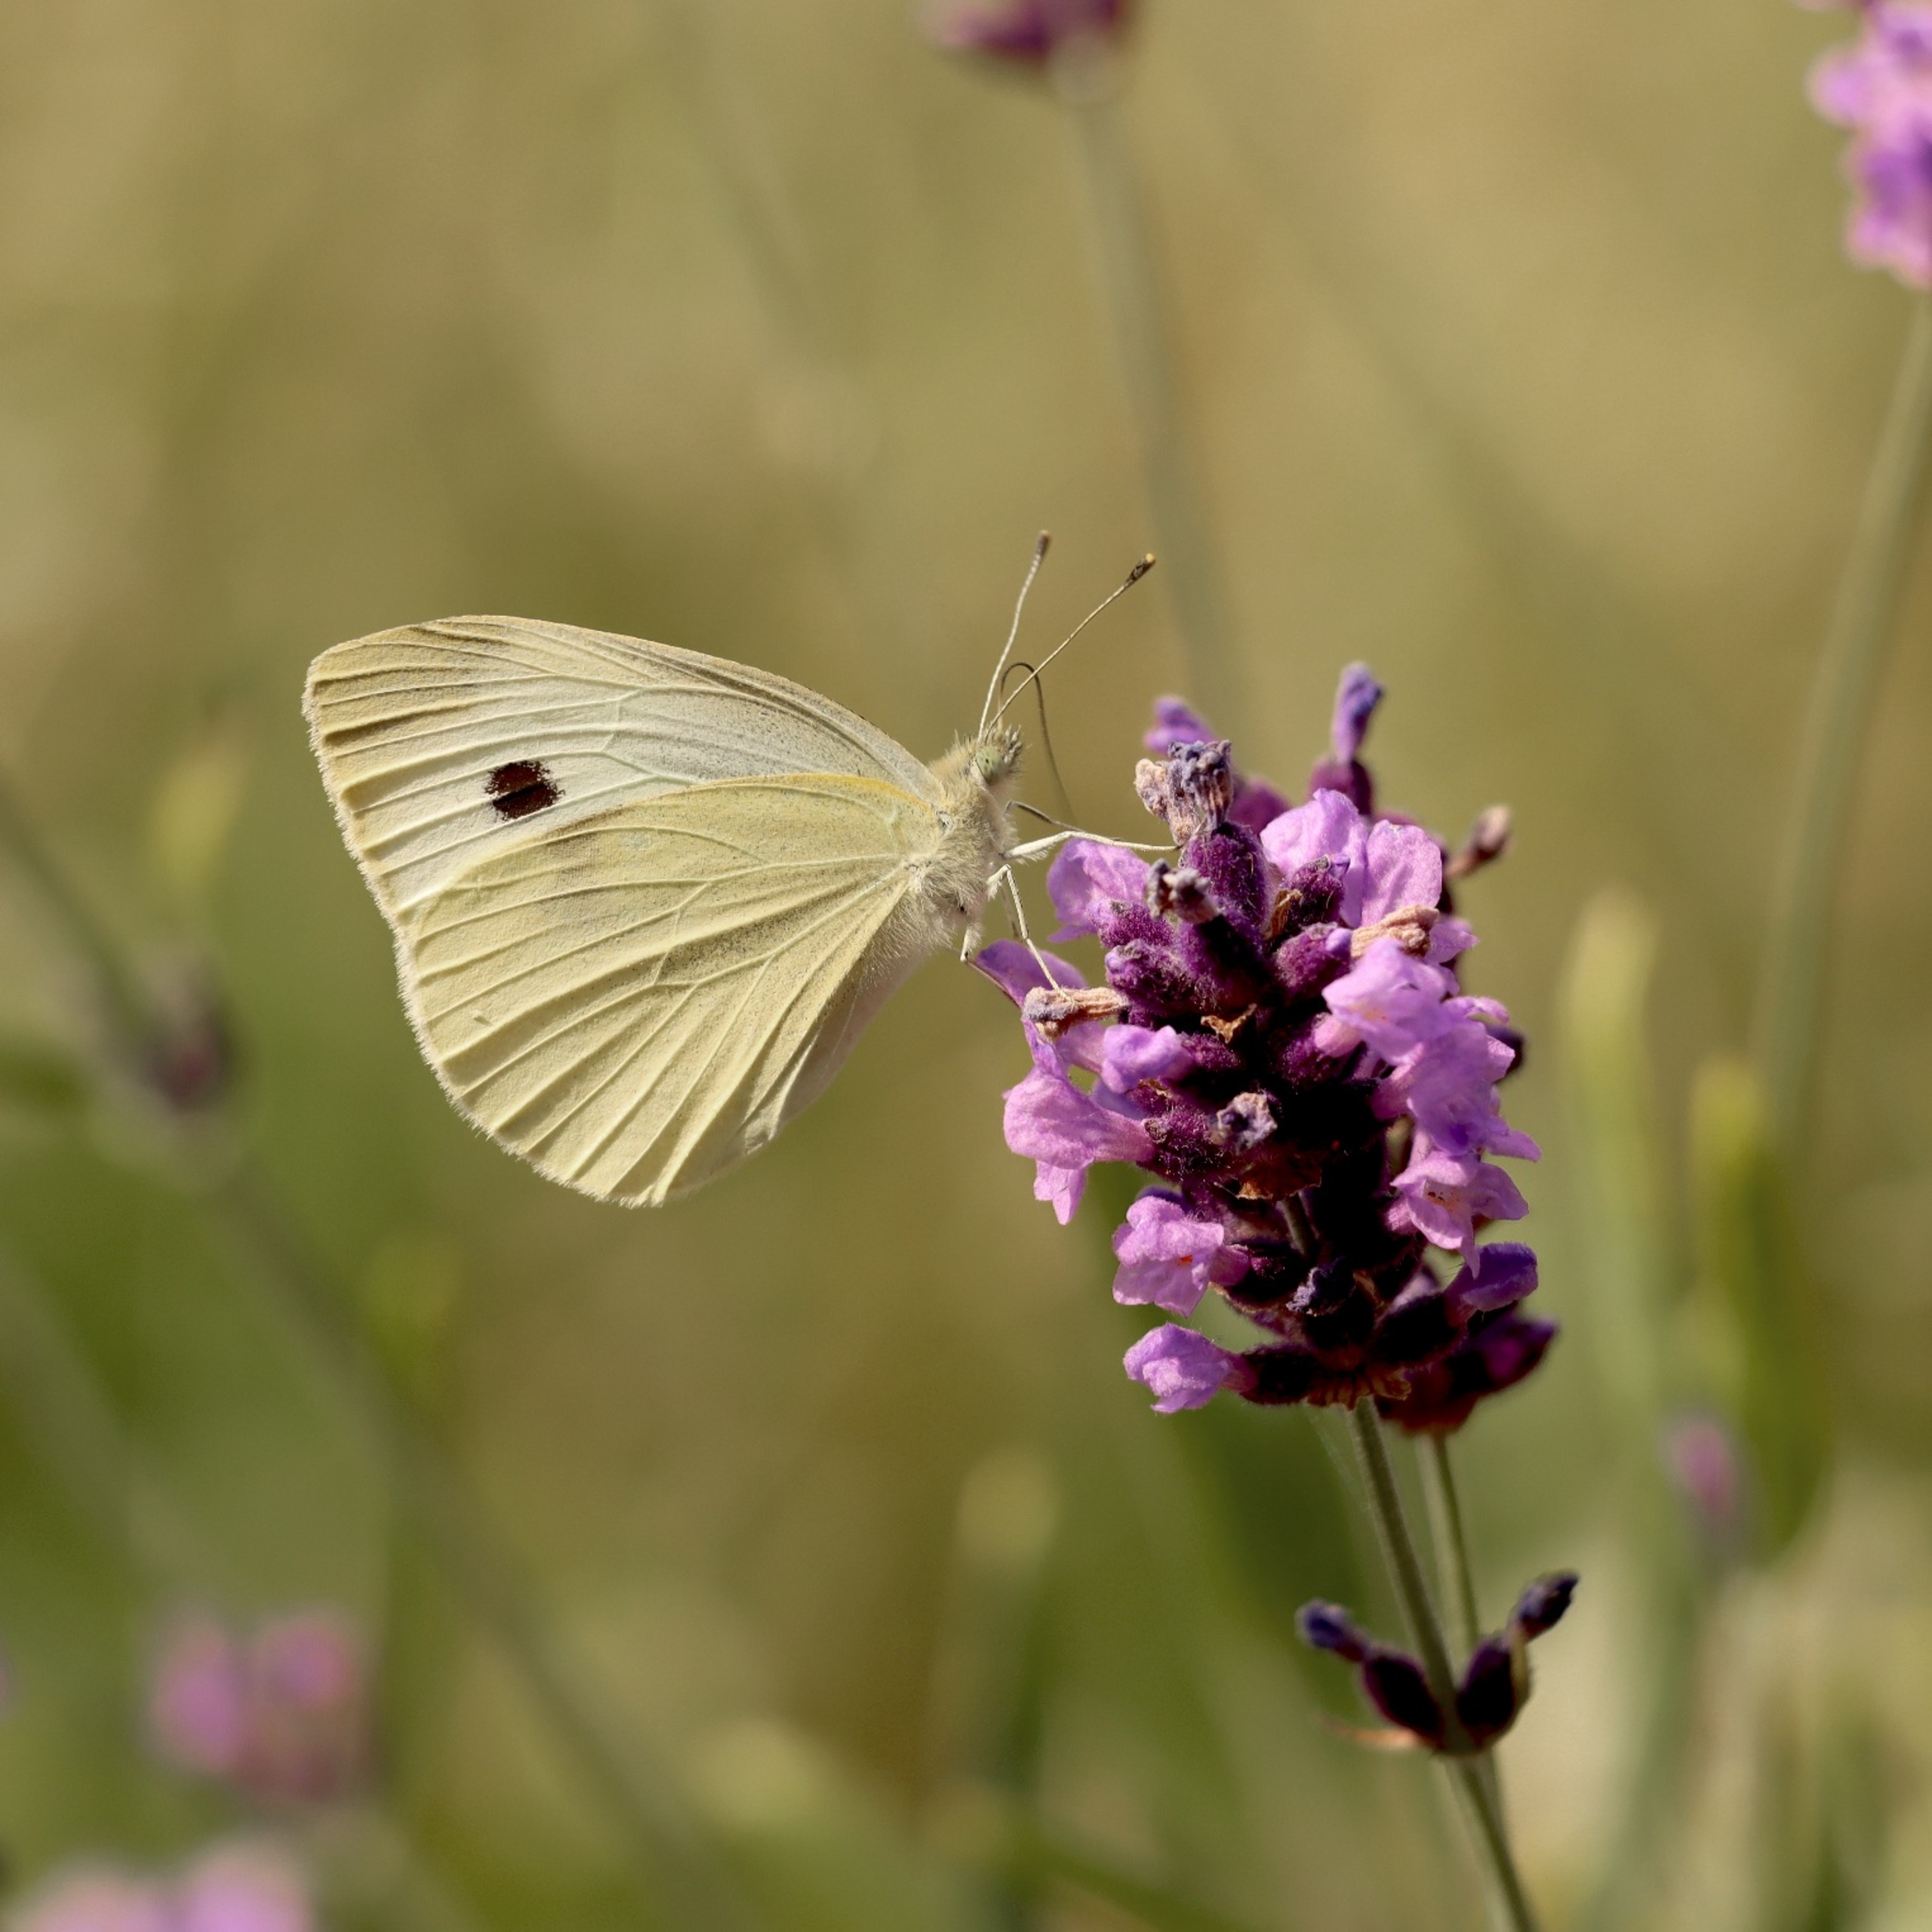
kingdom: Animalia
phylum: Arthropoda
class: Insecta
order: Lepidoptera
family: Pieridae
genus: Pieris
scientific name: Pieris brassicae
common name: Stor kålsommerfugl
